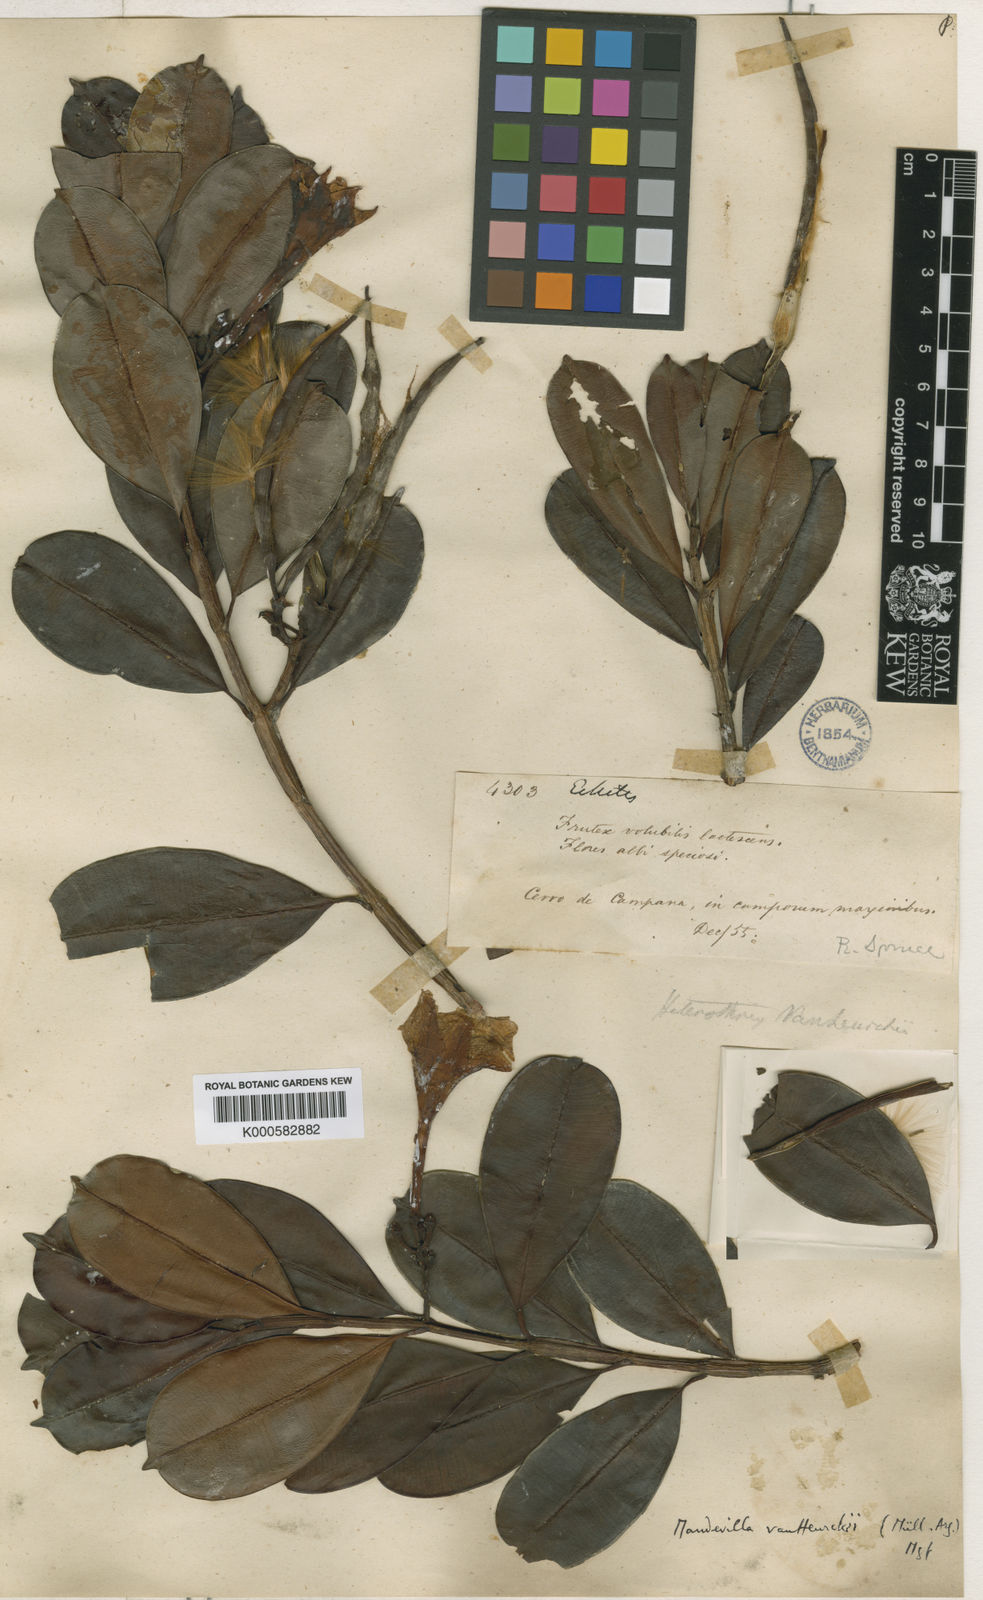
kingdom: Plantae
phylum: Tracheophyta
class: Magnoliopsida
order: Gentianales
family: Apocynaceae
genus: Mandevilla
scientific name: Mandevilla hirsuta
